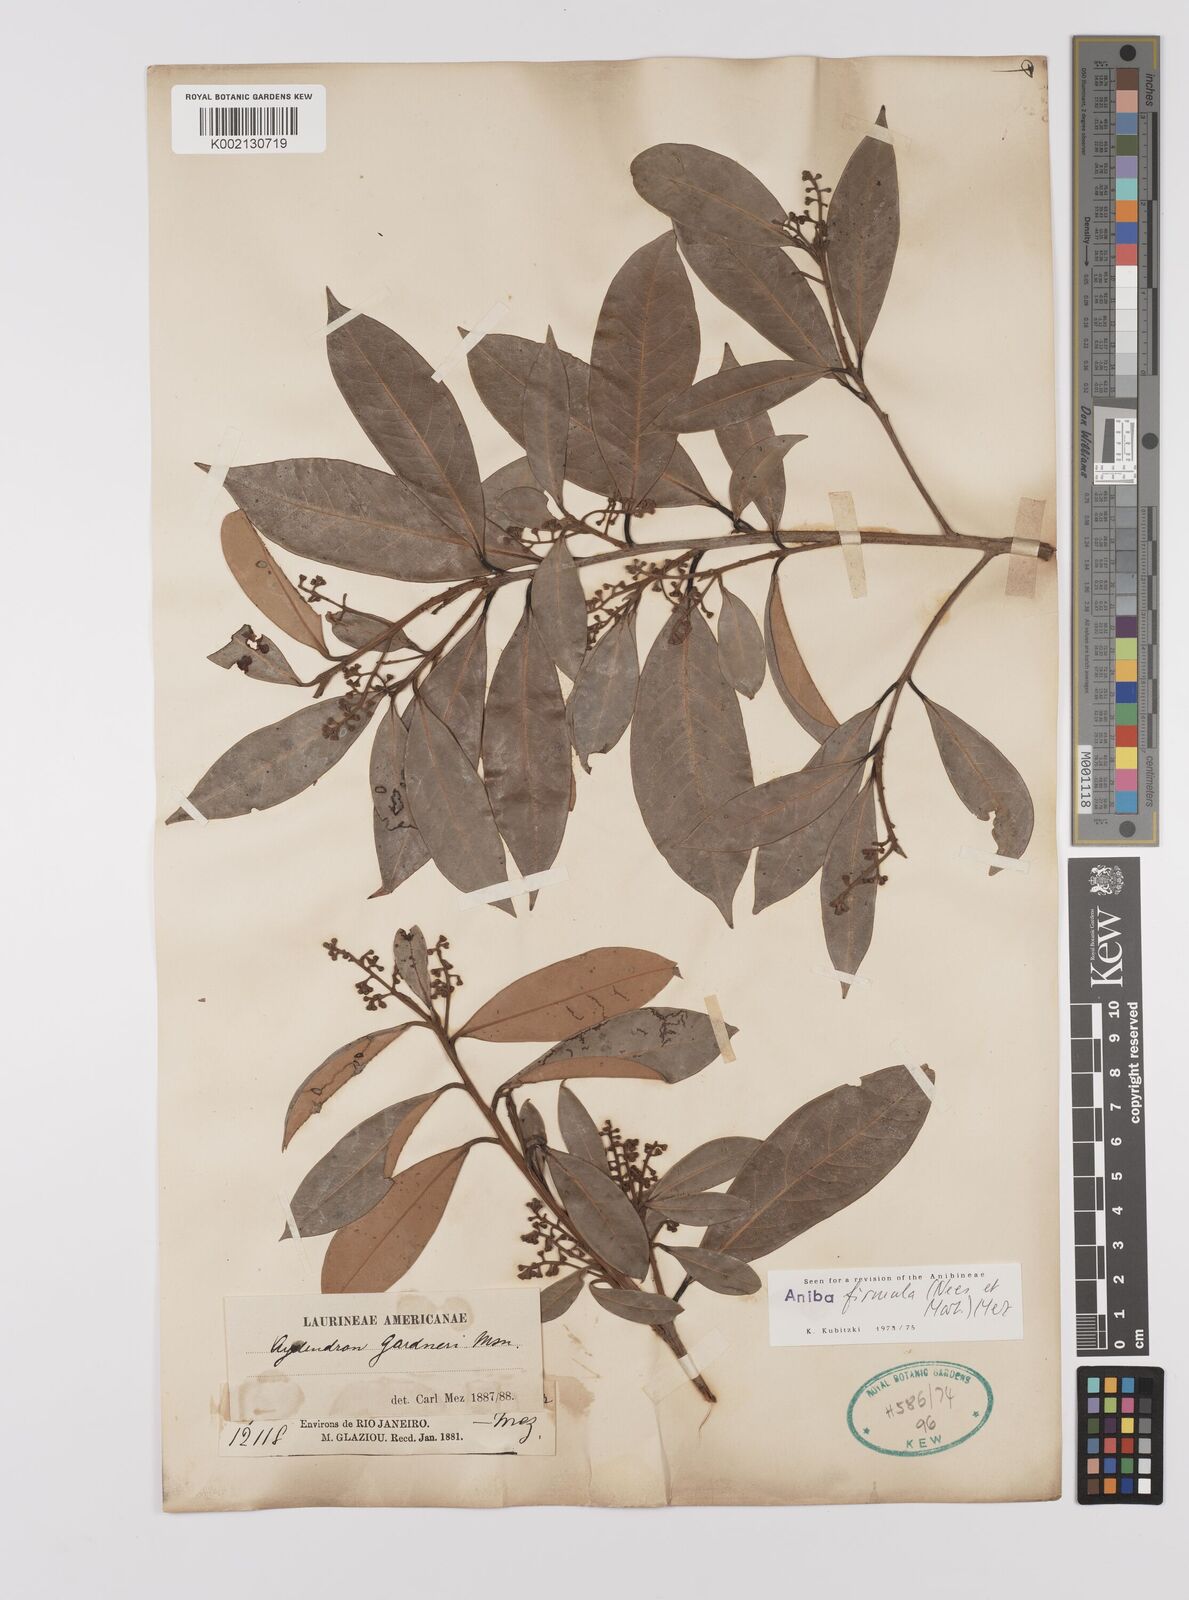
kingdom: Plantae
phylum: Tracheophyta
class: Magnoliopsida
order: Laurales
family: Lauraceae
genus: Aniba
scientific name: Aniba firmula
